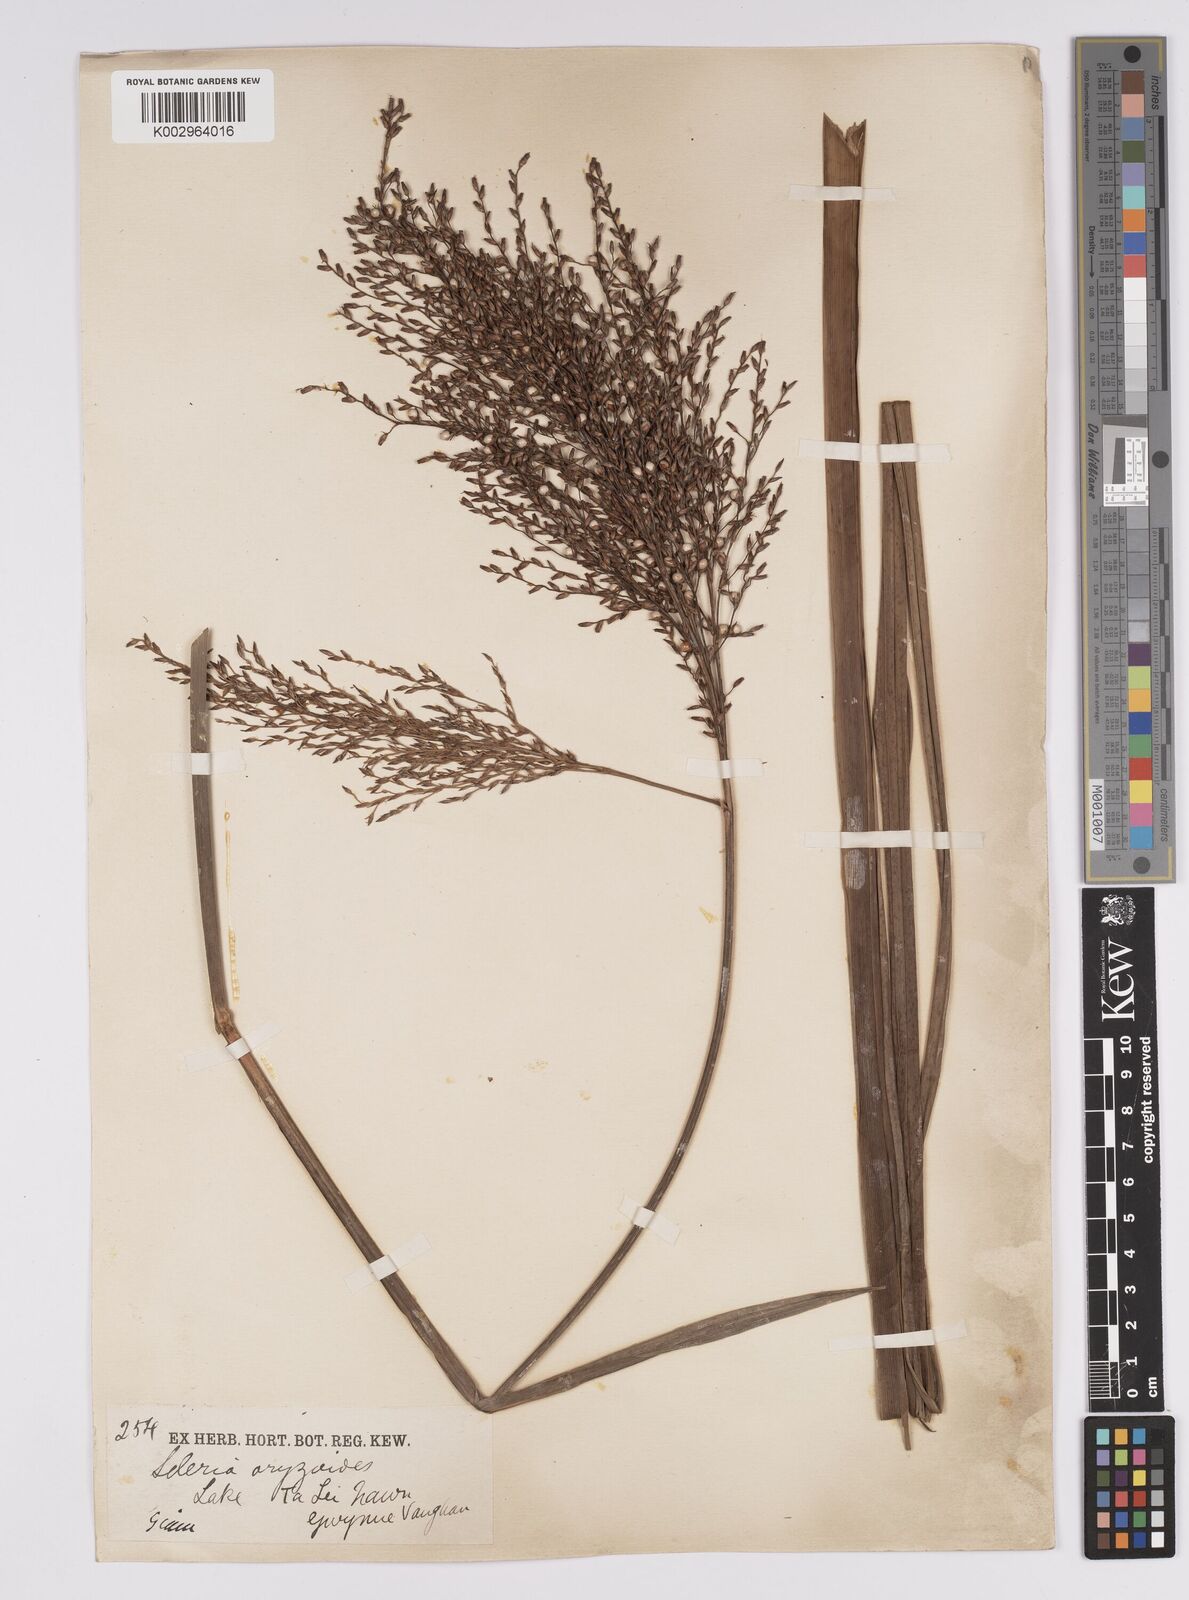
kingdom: Plantae
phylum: Tracheophyta
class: Liliopsida
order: Poales
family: Cyperaceae
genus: Scleria
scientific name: Scleria poiformis
